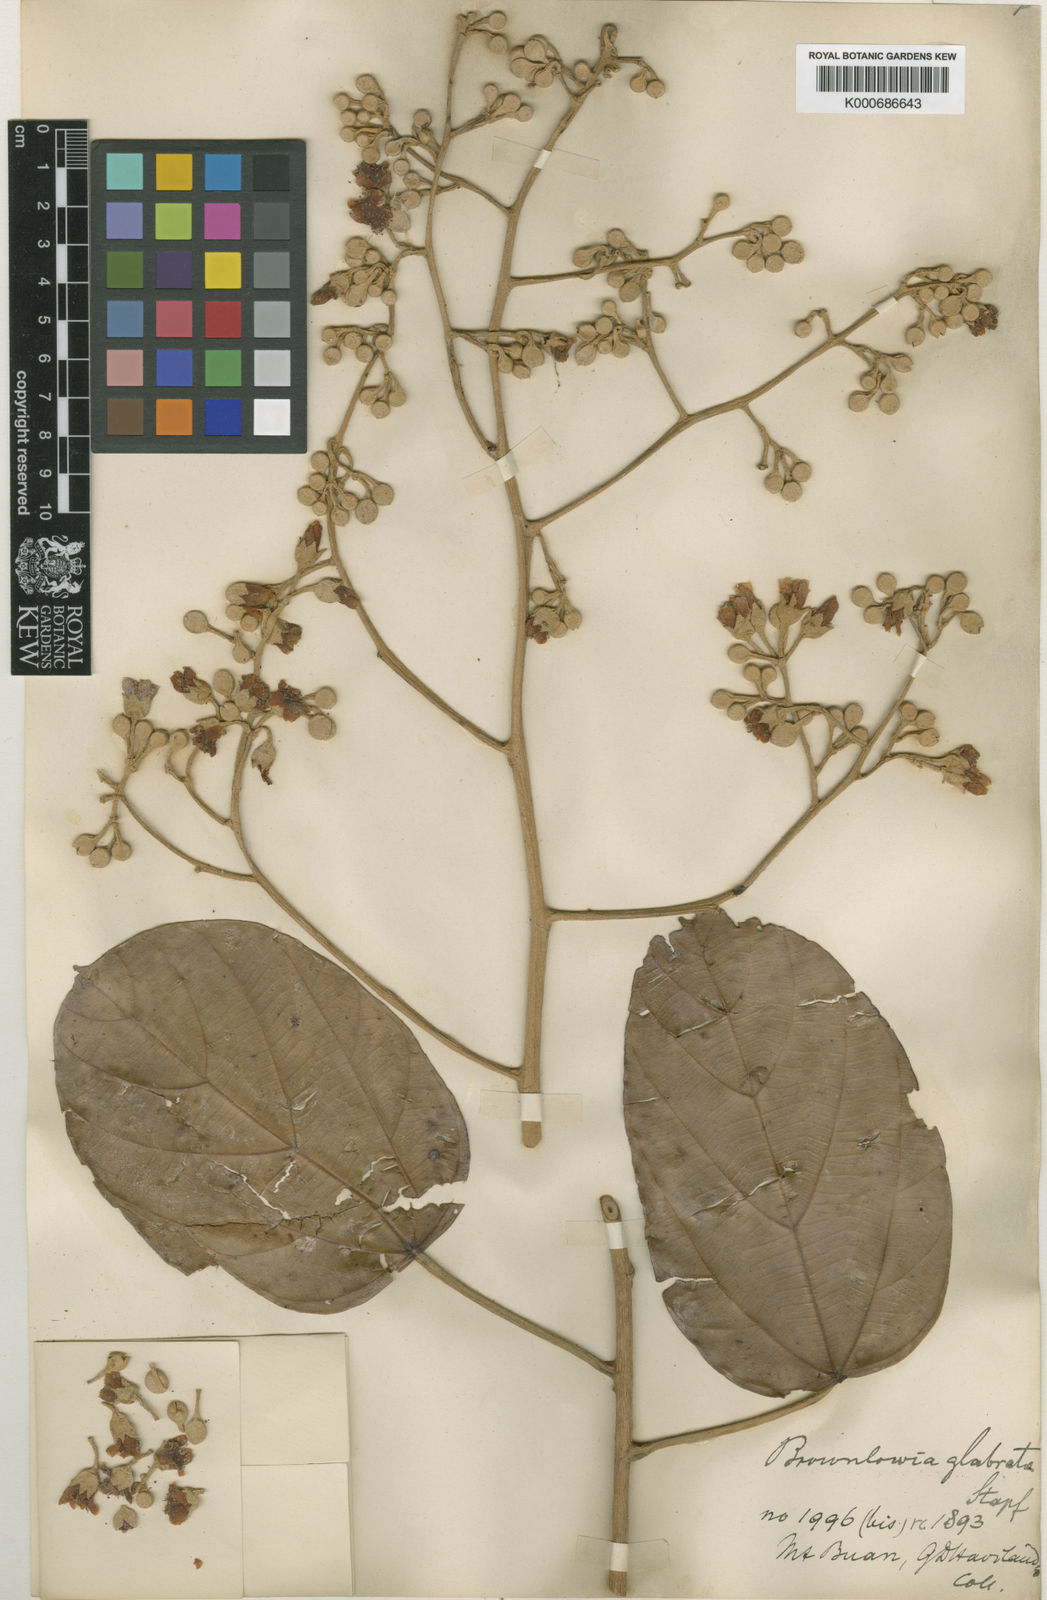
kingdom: Plantae
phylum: Tracheophyta
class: Magnoliopsida
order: Malvales
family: Malvaceae
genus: Brownlowia
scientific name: Brownlowia glabrata
